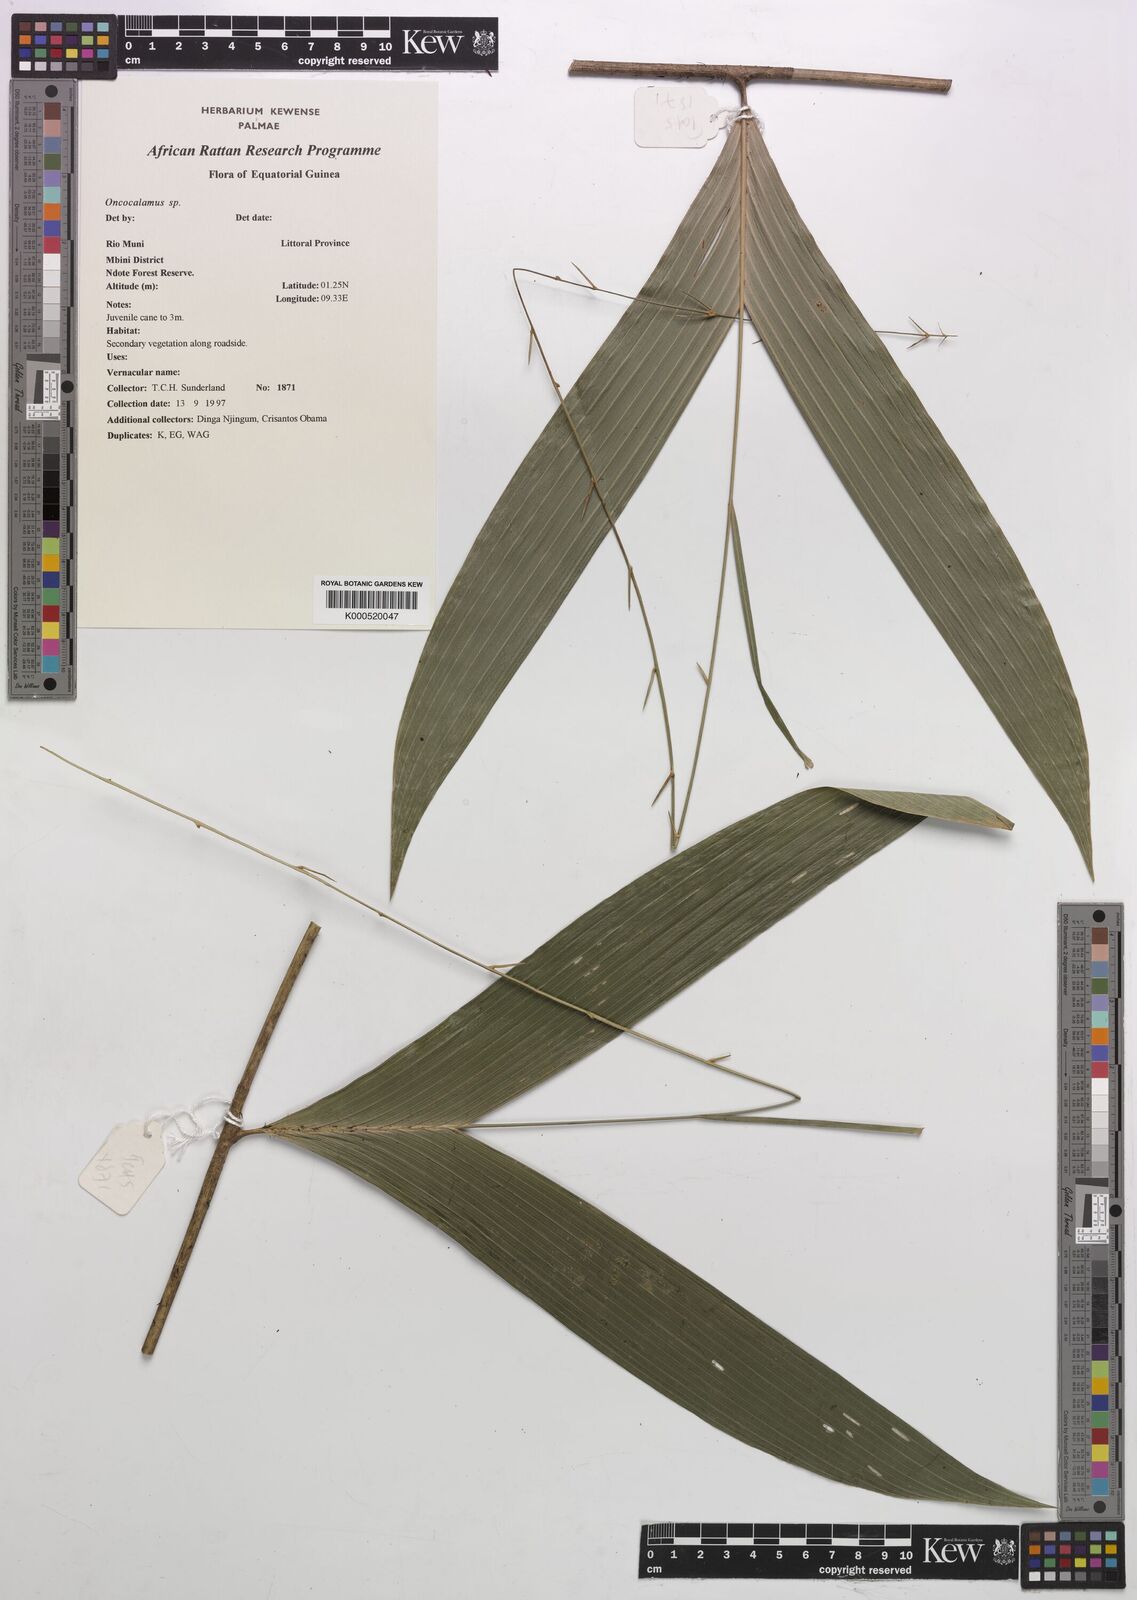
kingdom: Plantae
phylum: Tracheophyta
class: Liliopsida
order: Arecales
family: Arecaceae
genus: Oncocalamus
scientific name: Oncocalamus
